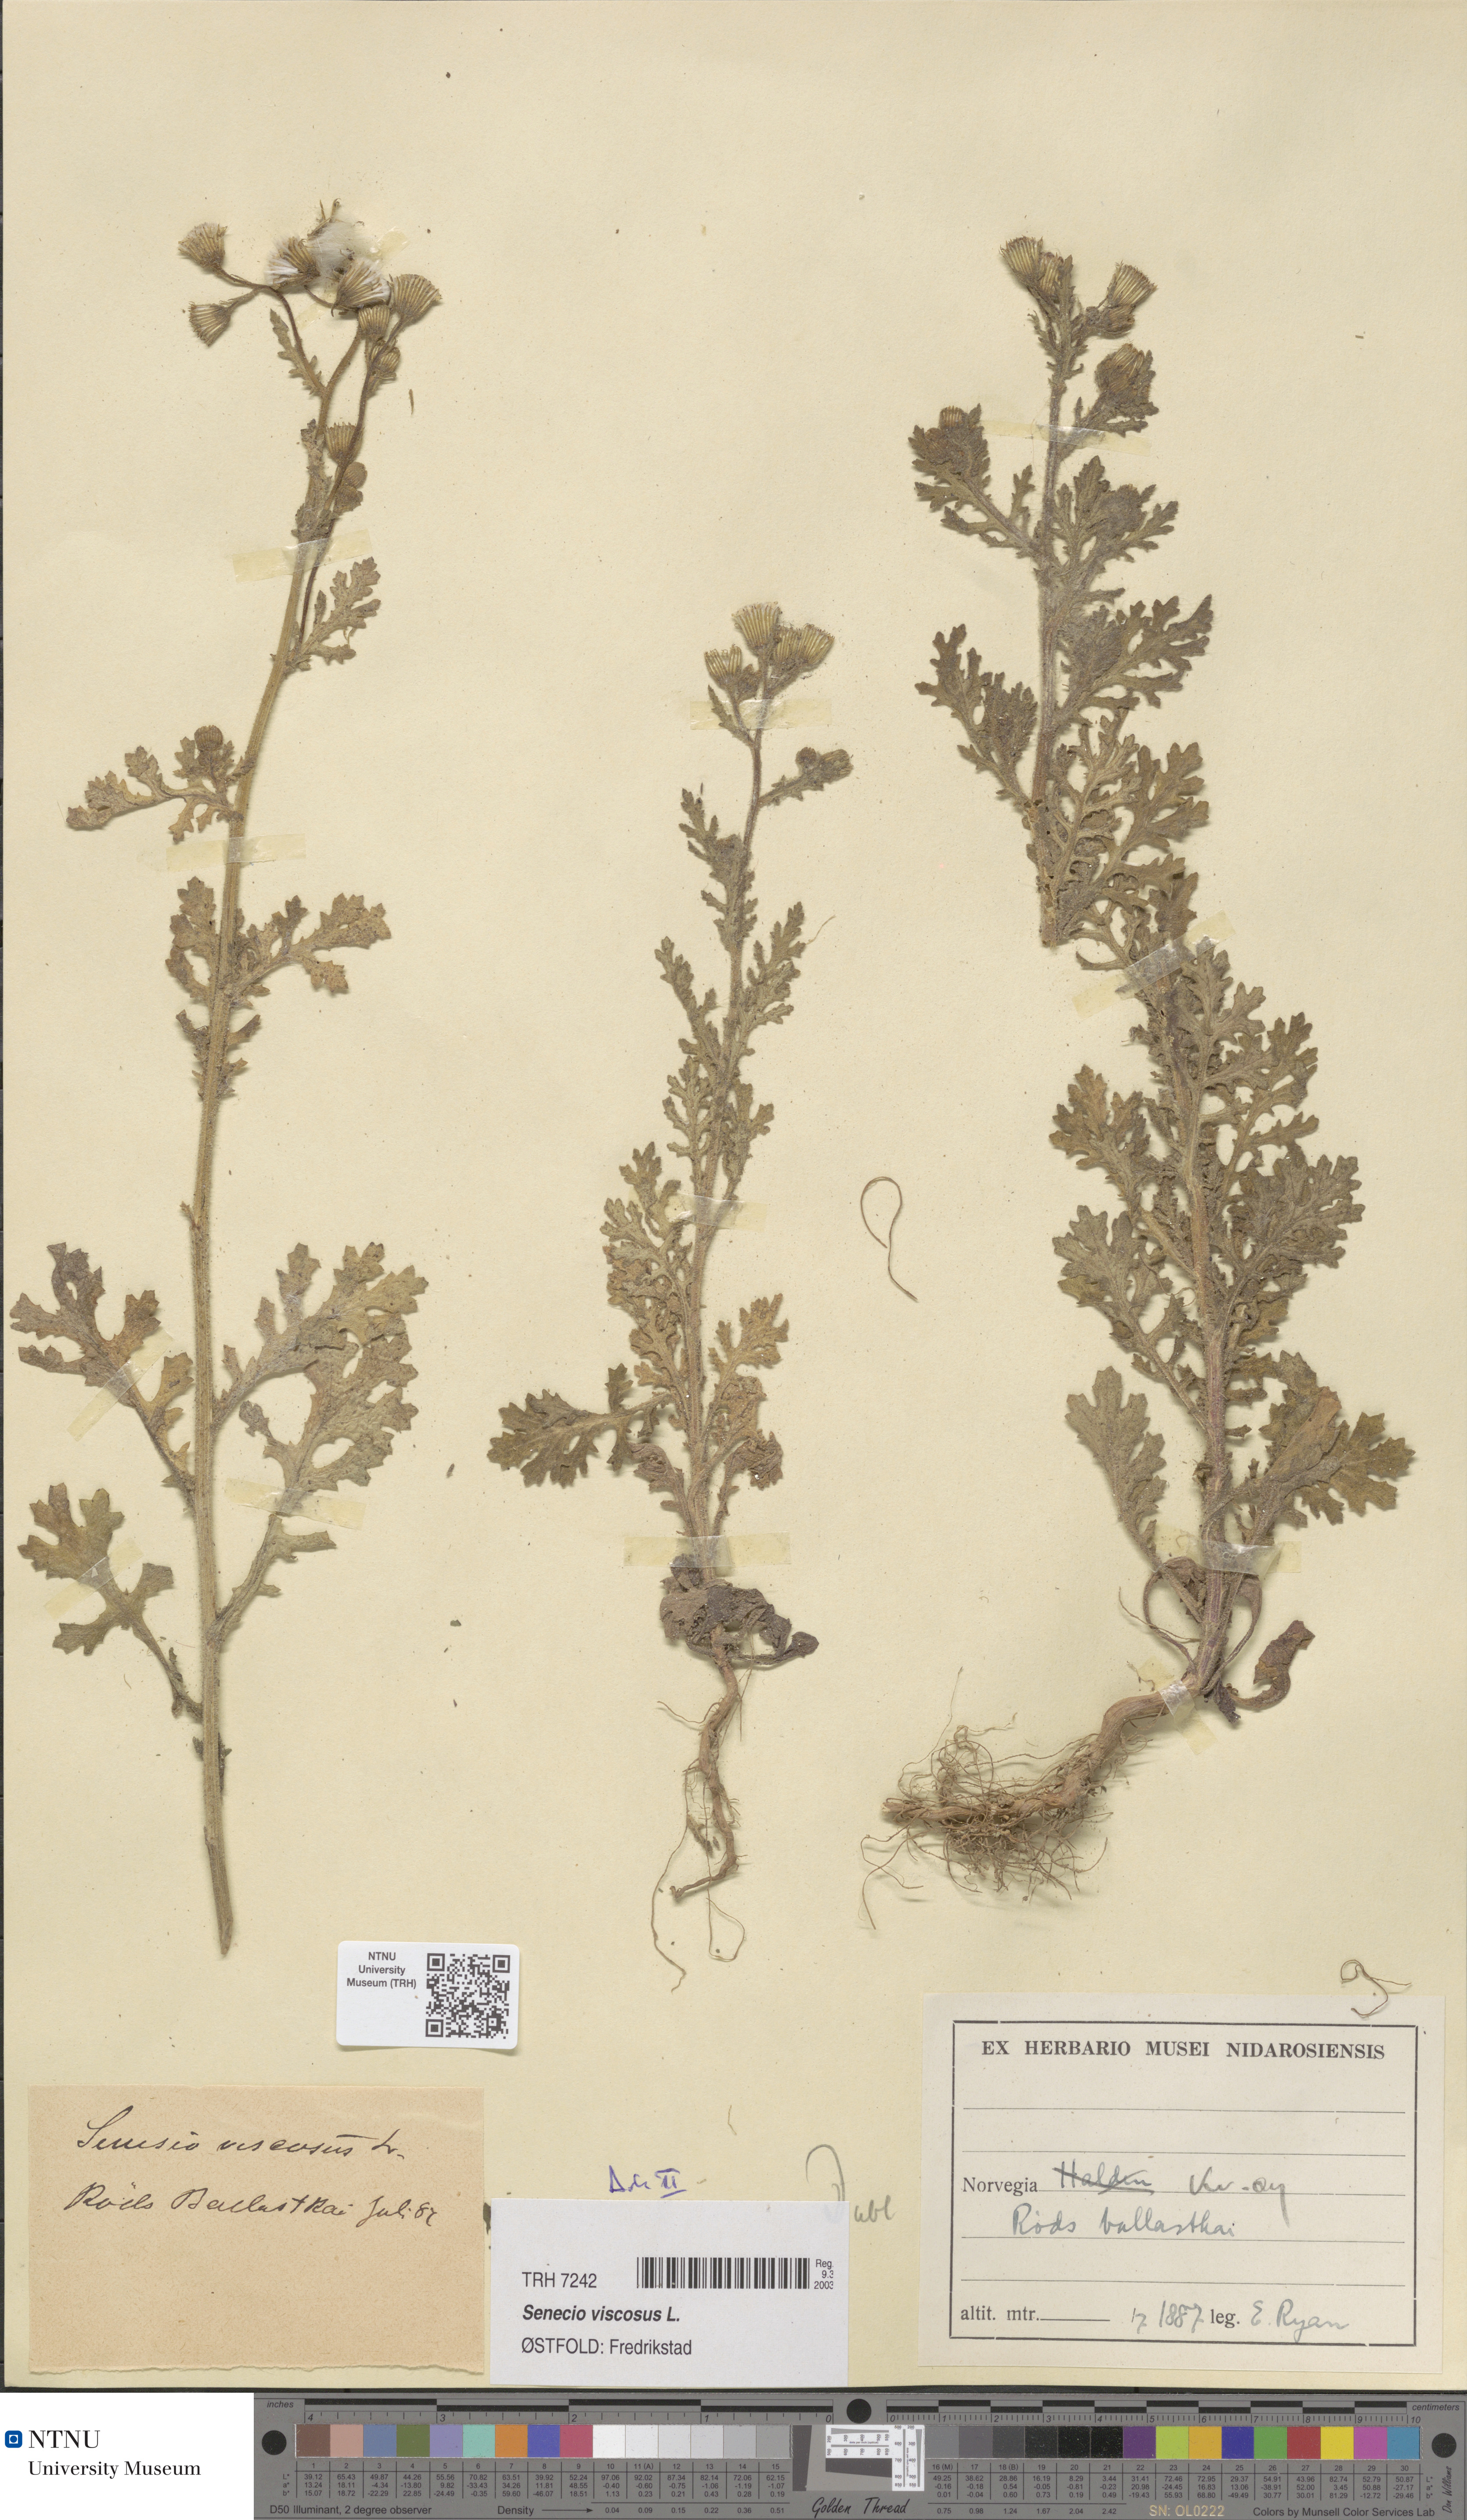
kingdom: Plantae
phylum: Tracheophyta
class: Magnoliopsida
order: Asterales
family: Asteraceae
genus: Senecio
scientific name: Senecio viscosus
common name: Sticky groundsel
